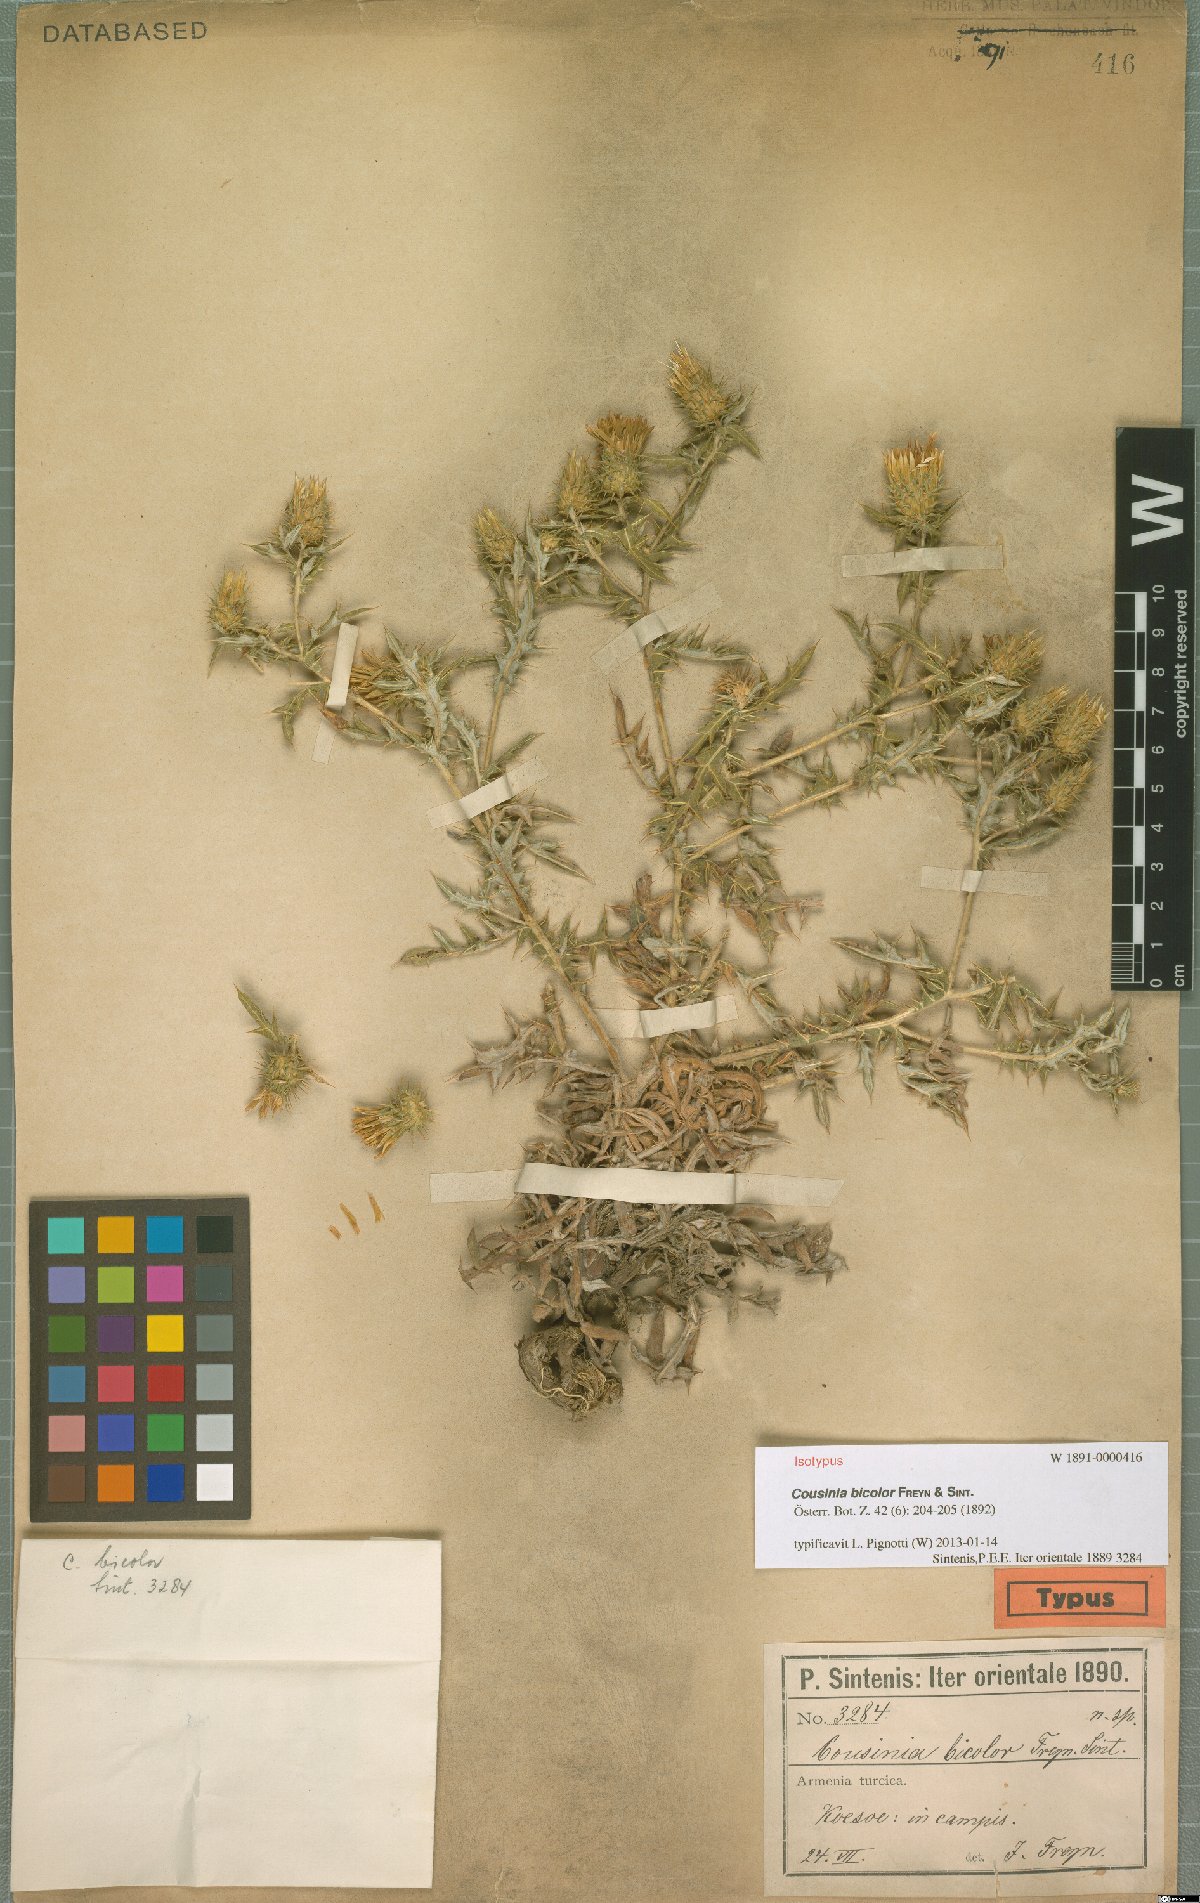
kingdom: Plantae
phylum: Tracheophyta
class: Magnoliopsida
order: Asterales
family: Asteraceae
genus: Cousinia
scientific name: Cousinia bicolor
